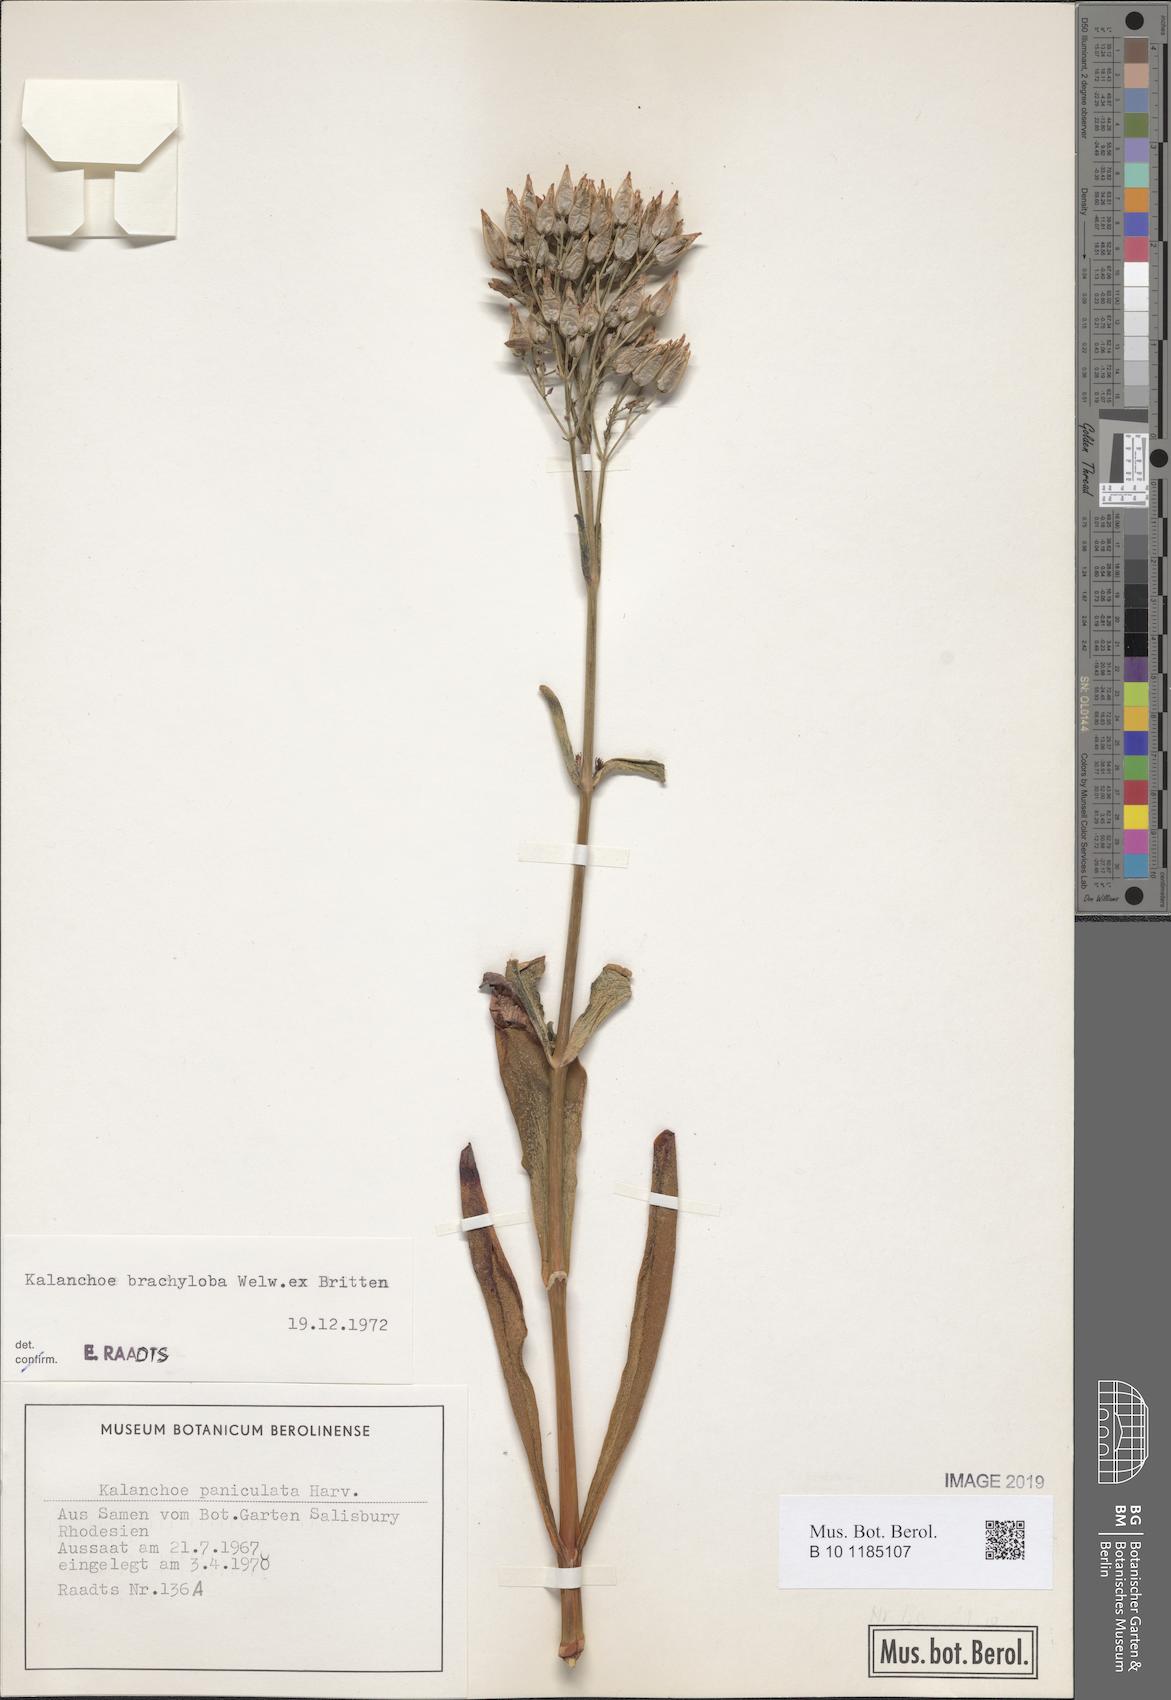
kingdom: Plantae
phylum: Tracheophyta
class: Magnoliopsida
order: Saxifragales
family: Crassulaceae
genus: Kalanchoe
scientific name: Kalanchoe brachyloba
